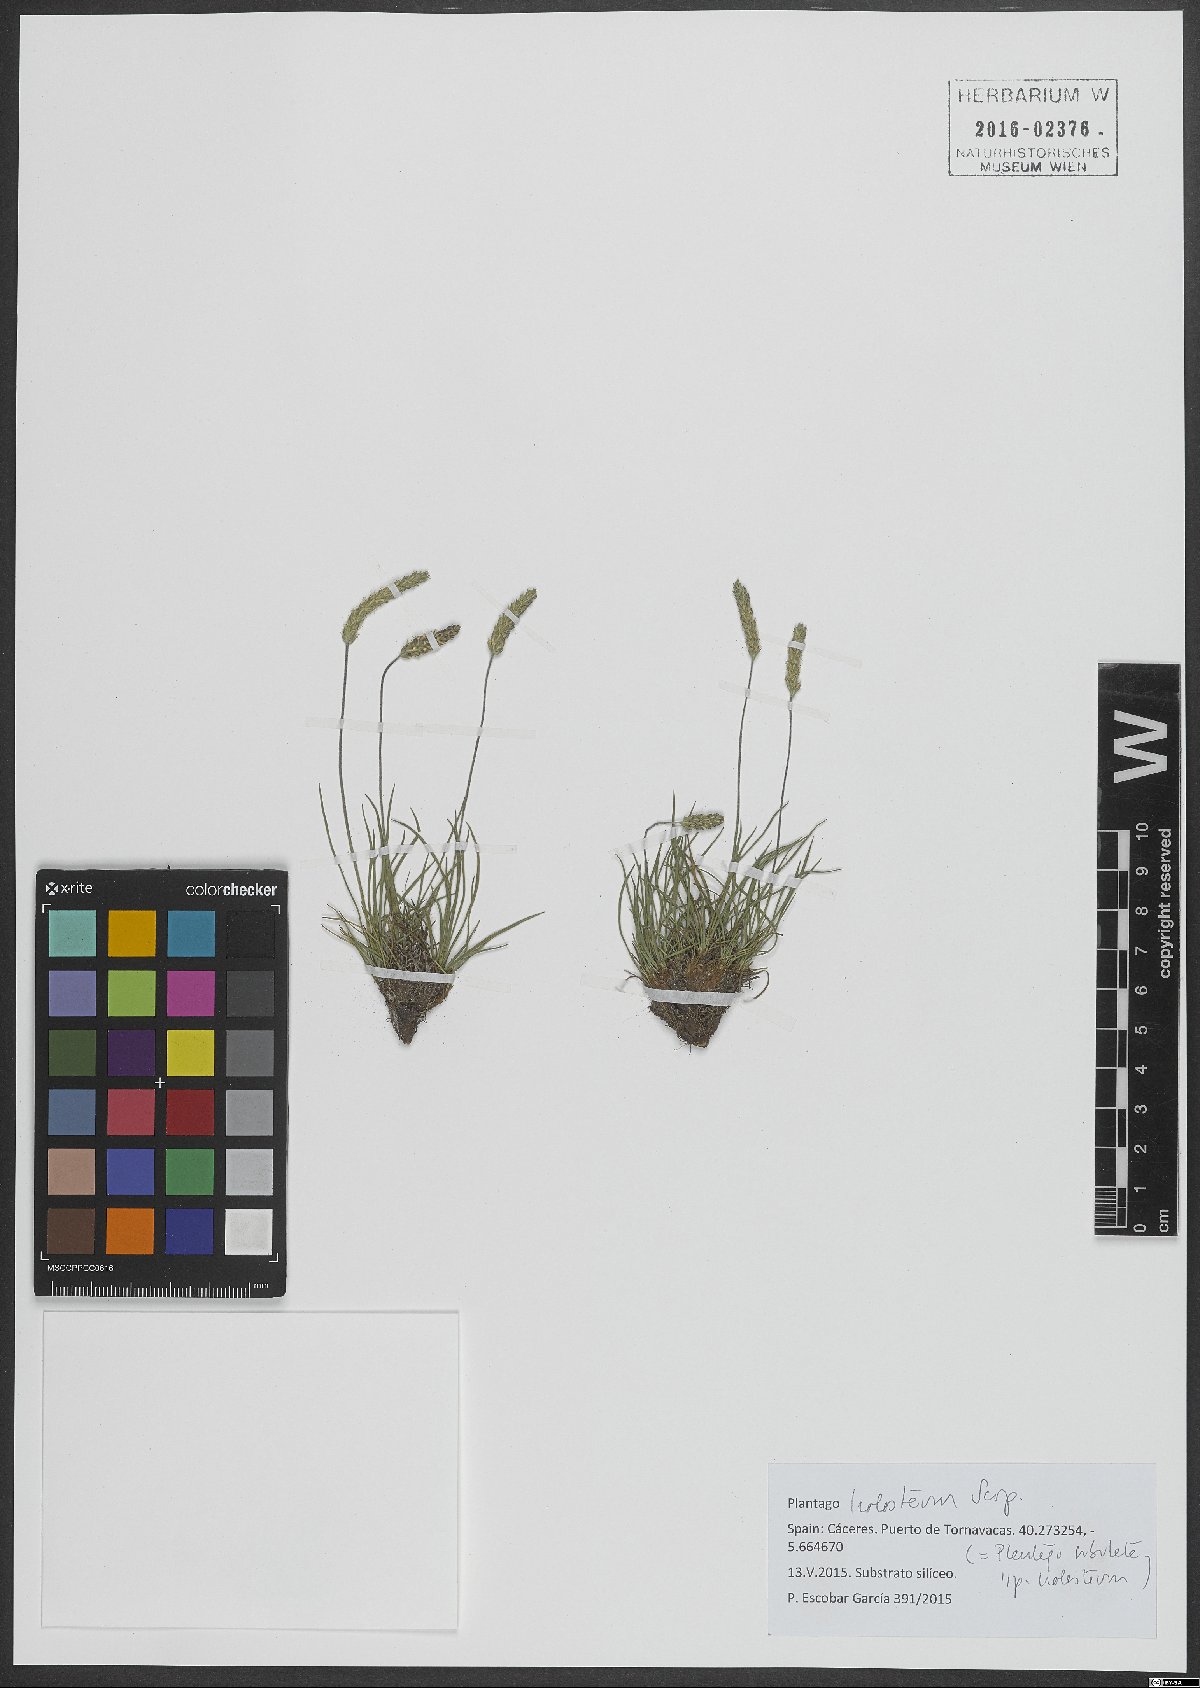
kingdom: Plantae
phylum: Tracheophyta
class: Magnoliopsida
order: Lamiales
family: Plantaginaceae
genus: Plantago
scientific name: Plantago subulata
